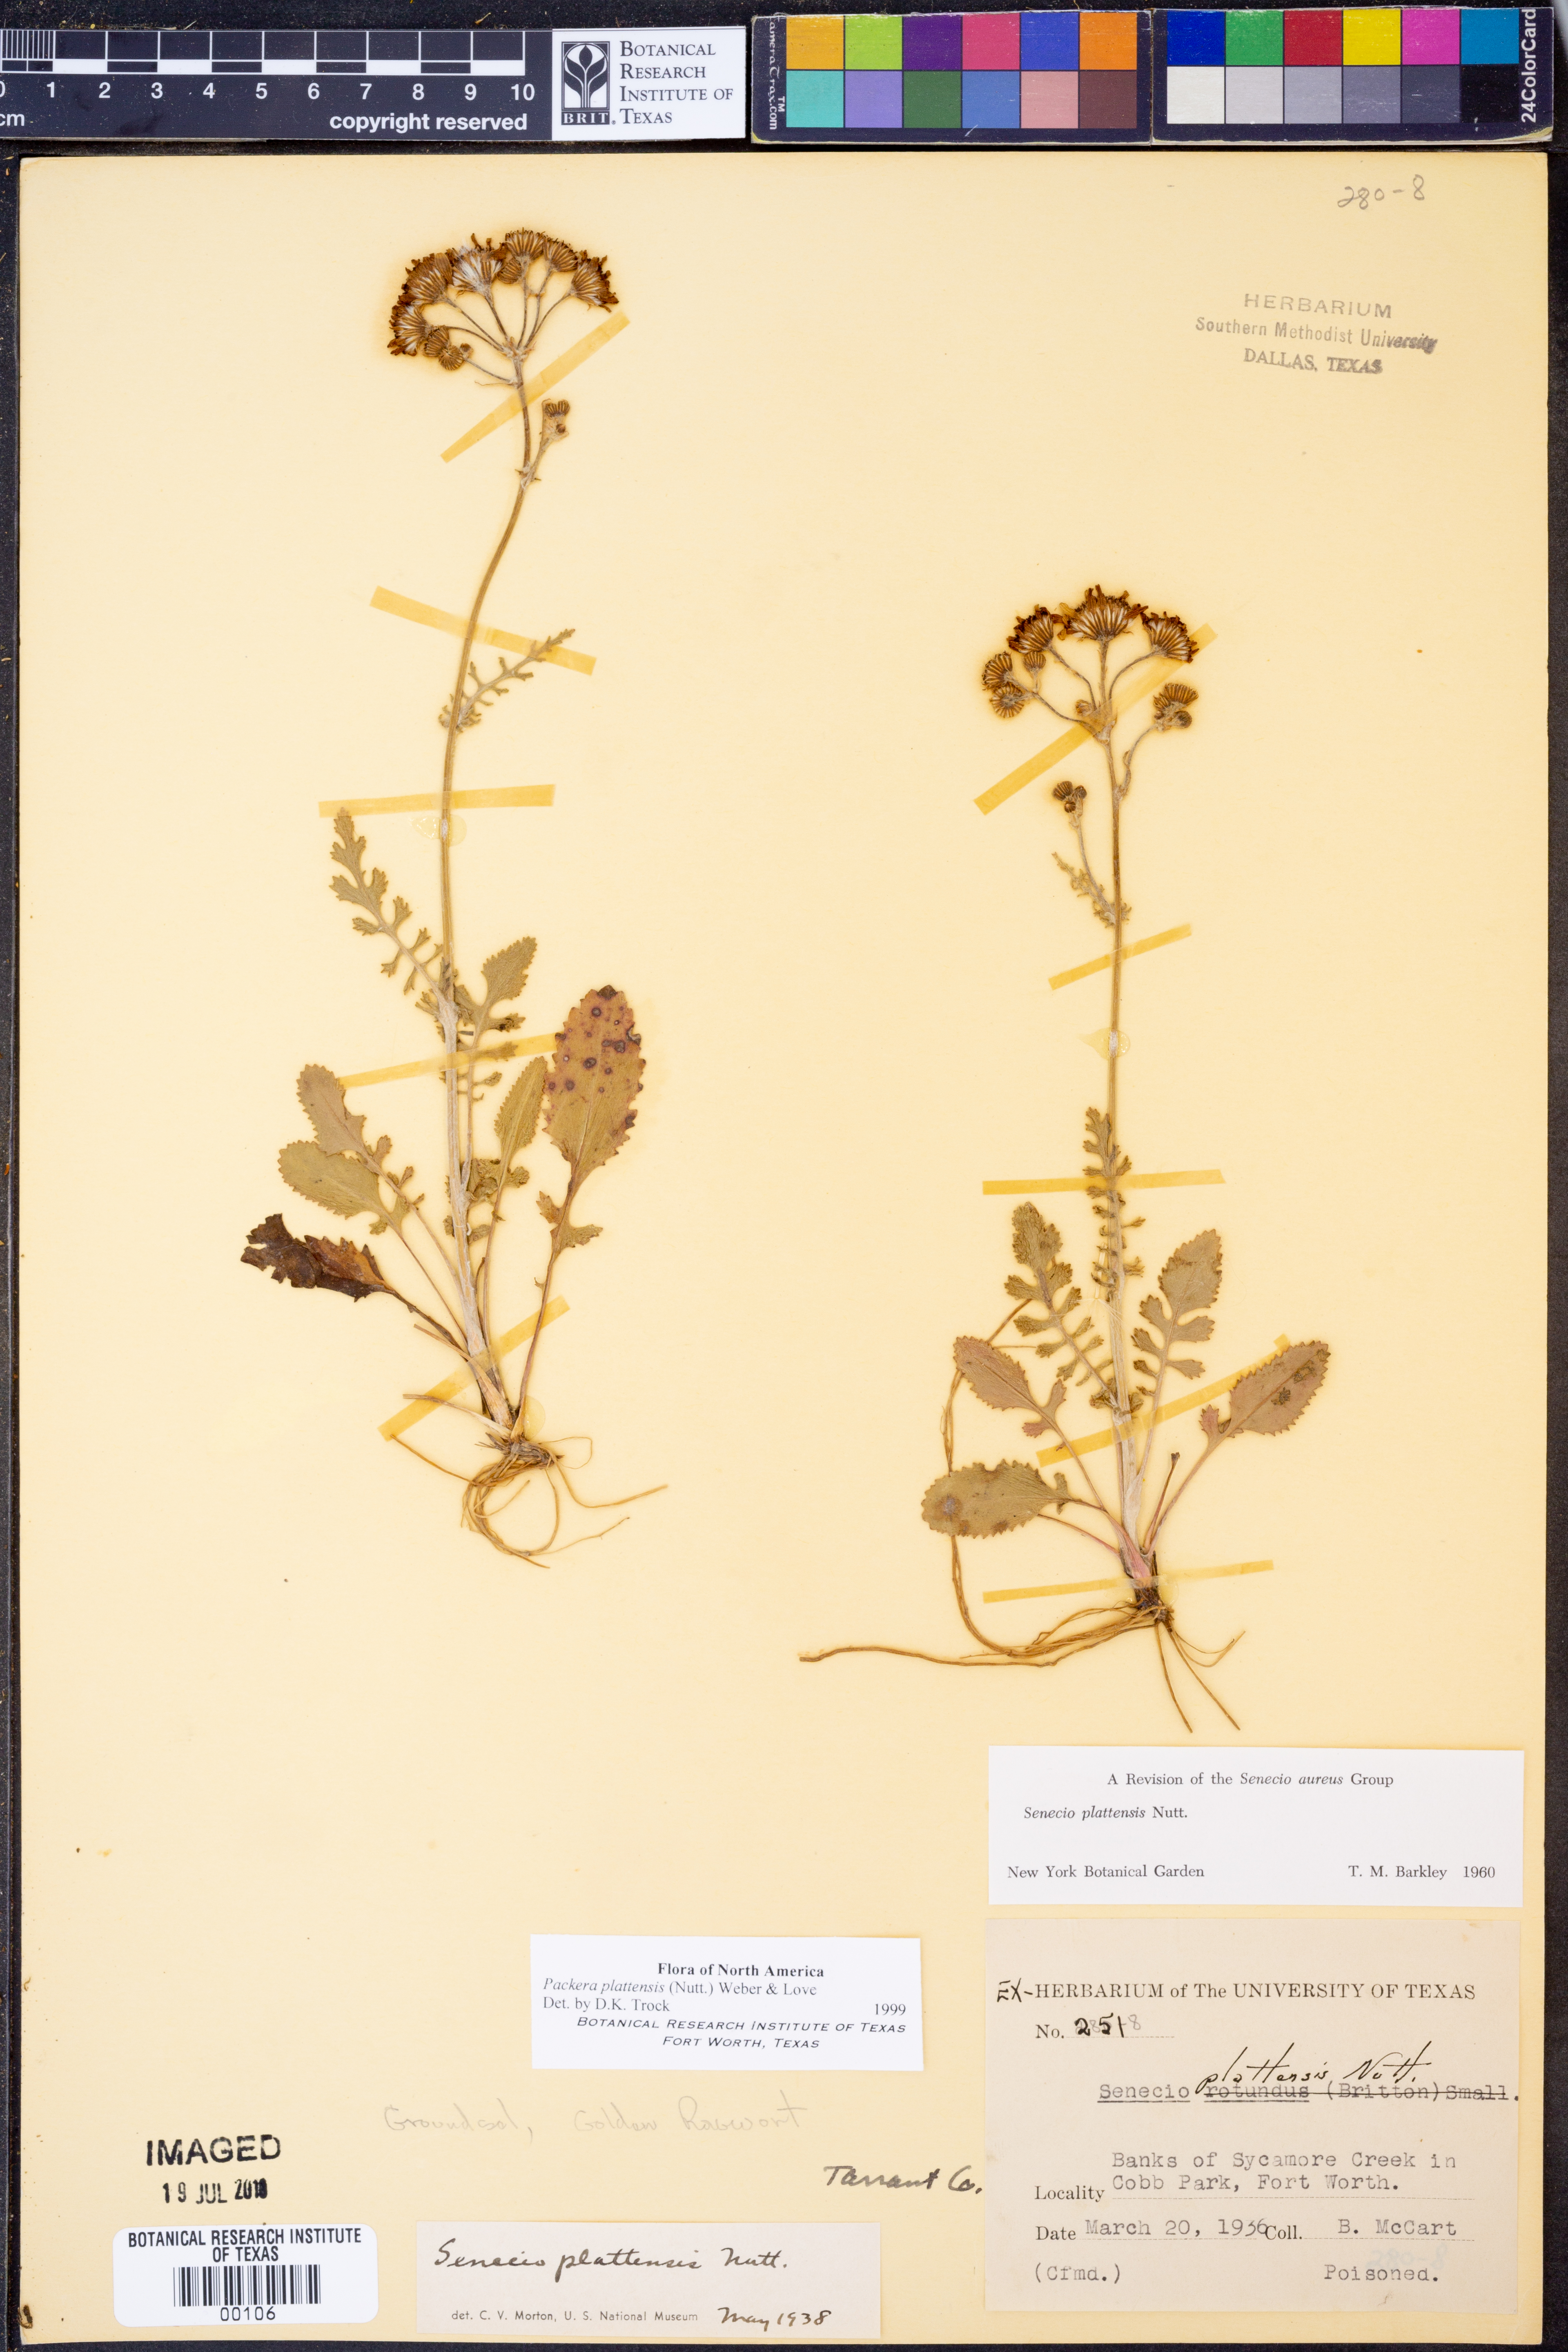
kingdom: Plantae
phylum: Tracheophyta
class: Magnoliopsida
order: Asterales
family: Asteraceae
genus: Packera
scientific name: Packera plattensis
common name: Prairie groundsel
